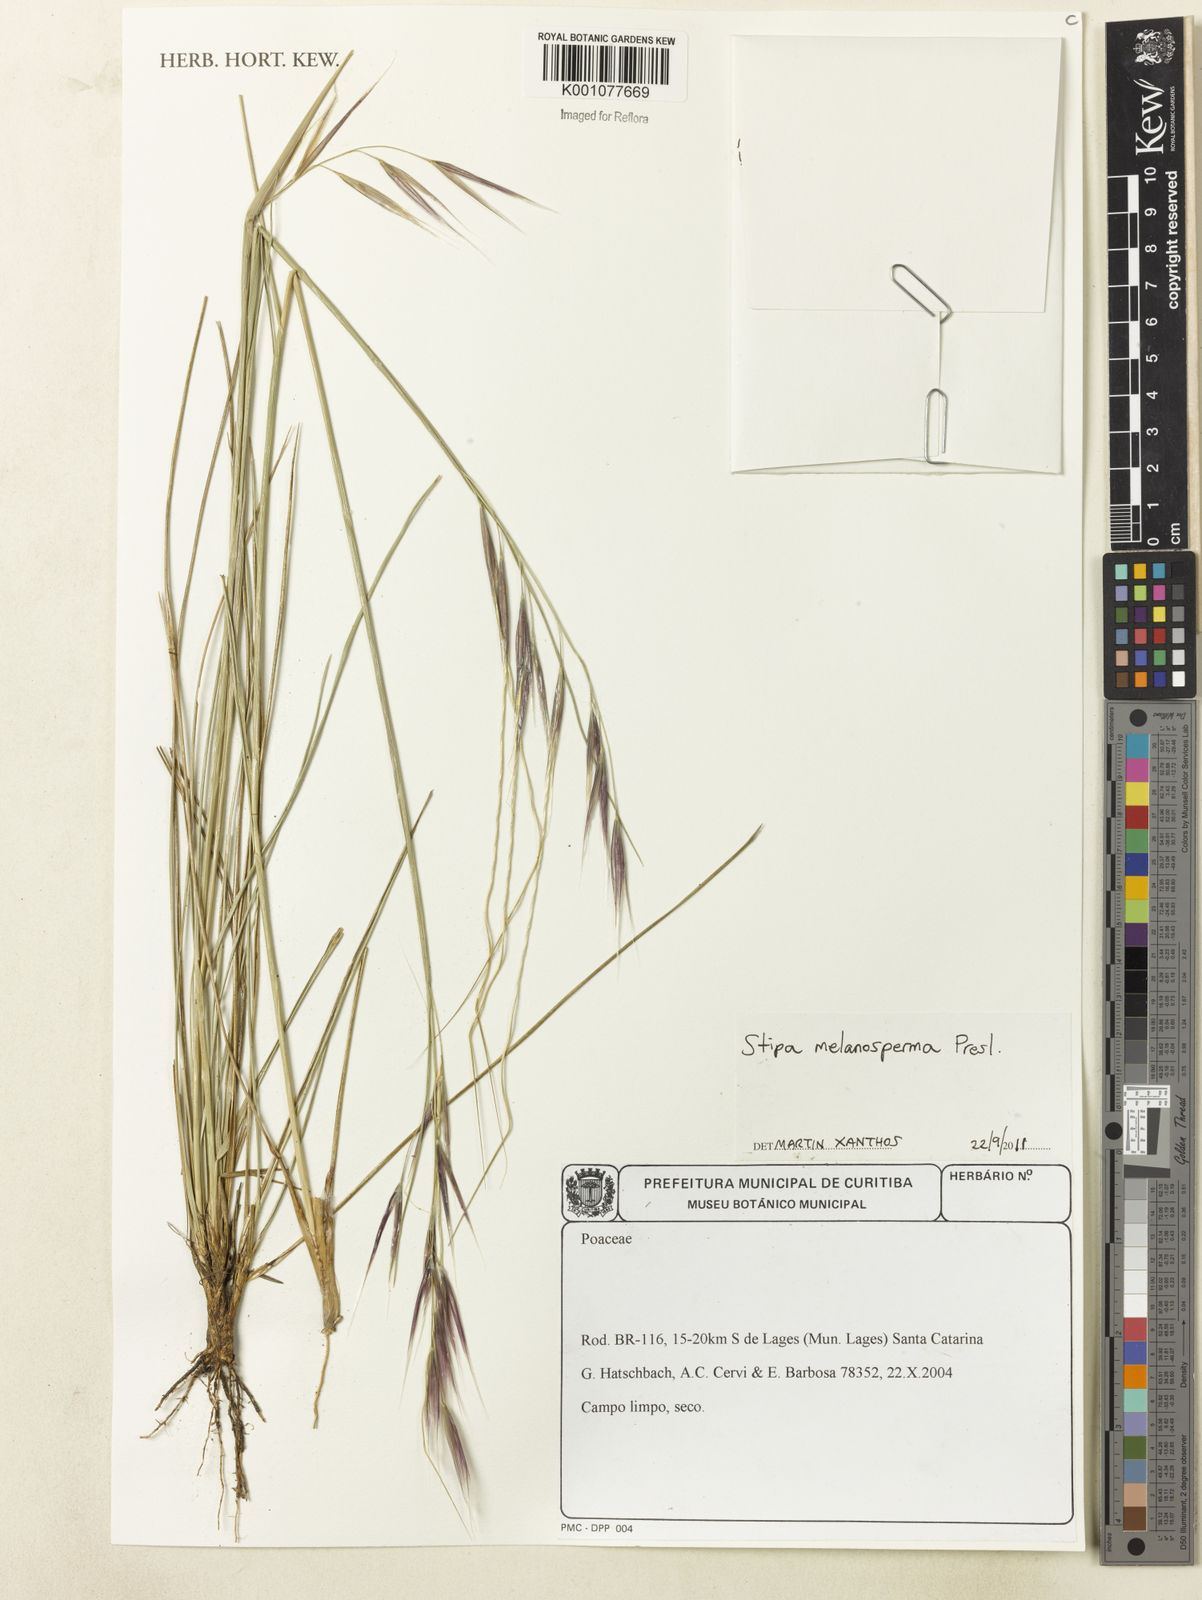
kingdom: Plantae
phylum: Tracheophyta
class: Liliopsida
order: Poales
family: Poaceae
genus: Nassella
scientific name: Nassella melanosperma
